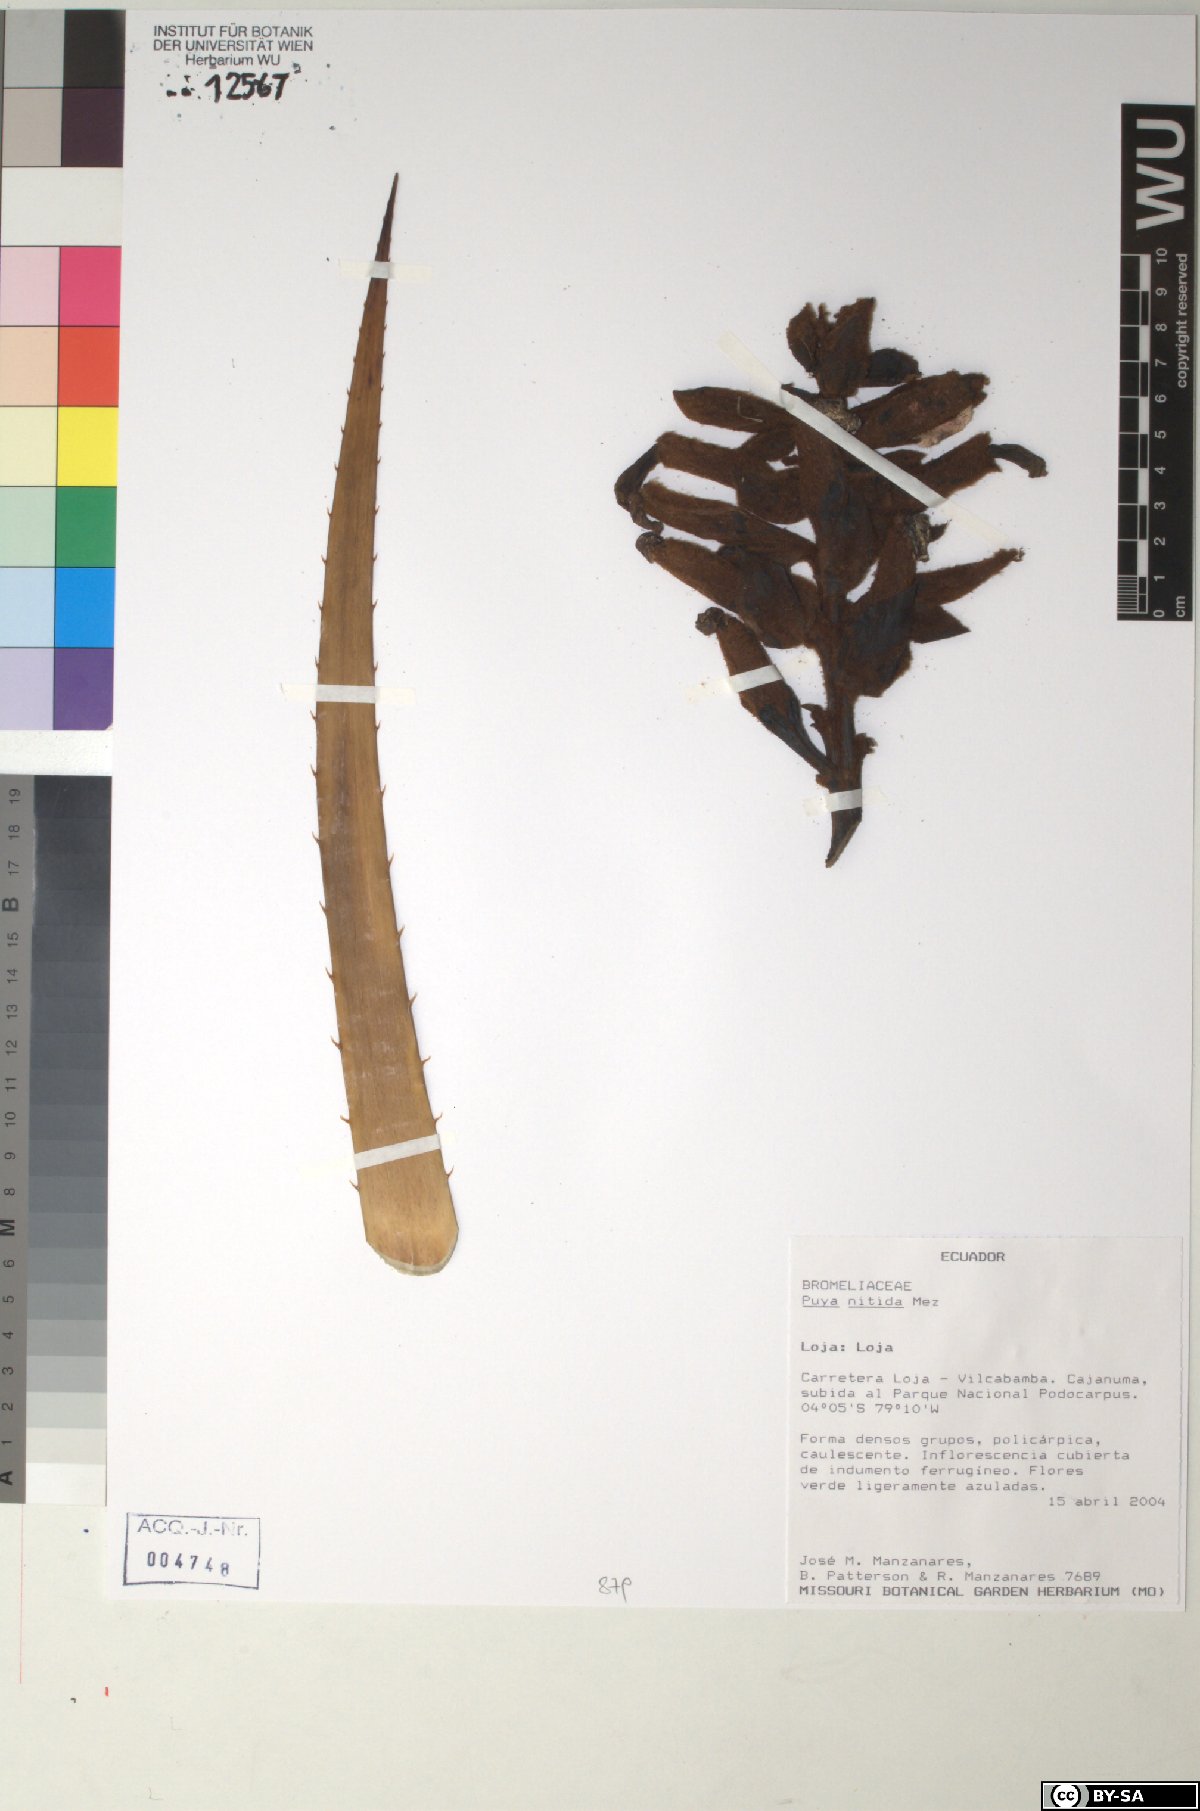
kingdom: Plantae
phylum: Tracheophyta
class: Liliopsida
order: Poales
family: Bromeliaceae
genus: Puya
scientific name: Puya
